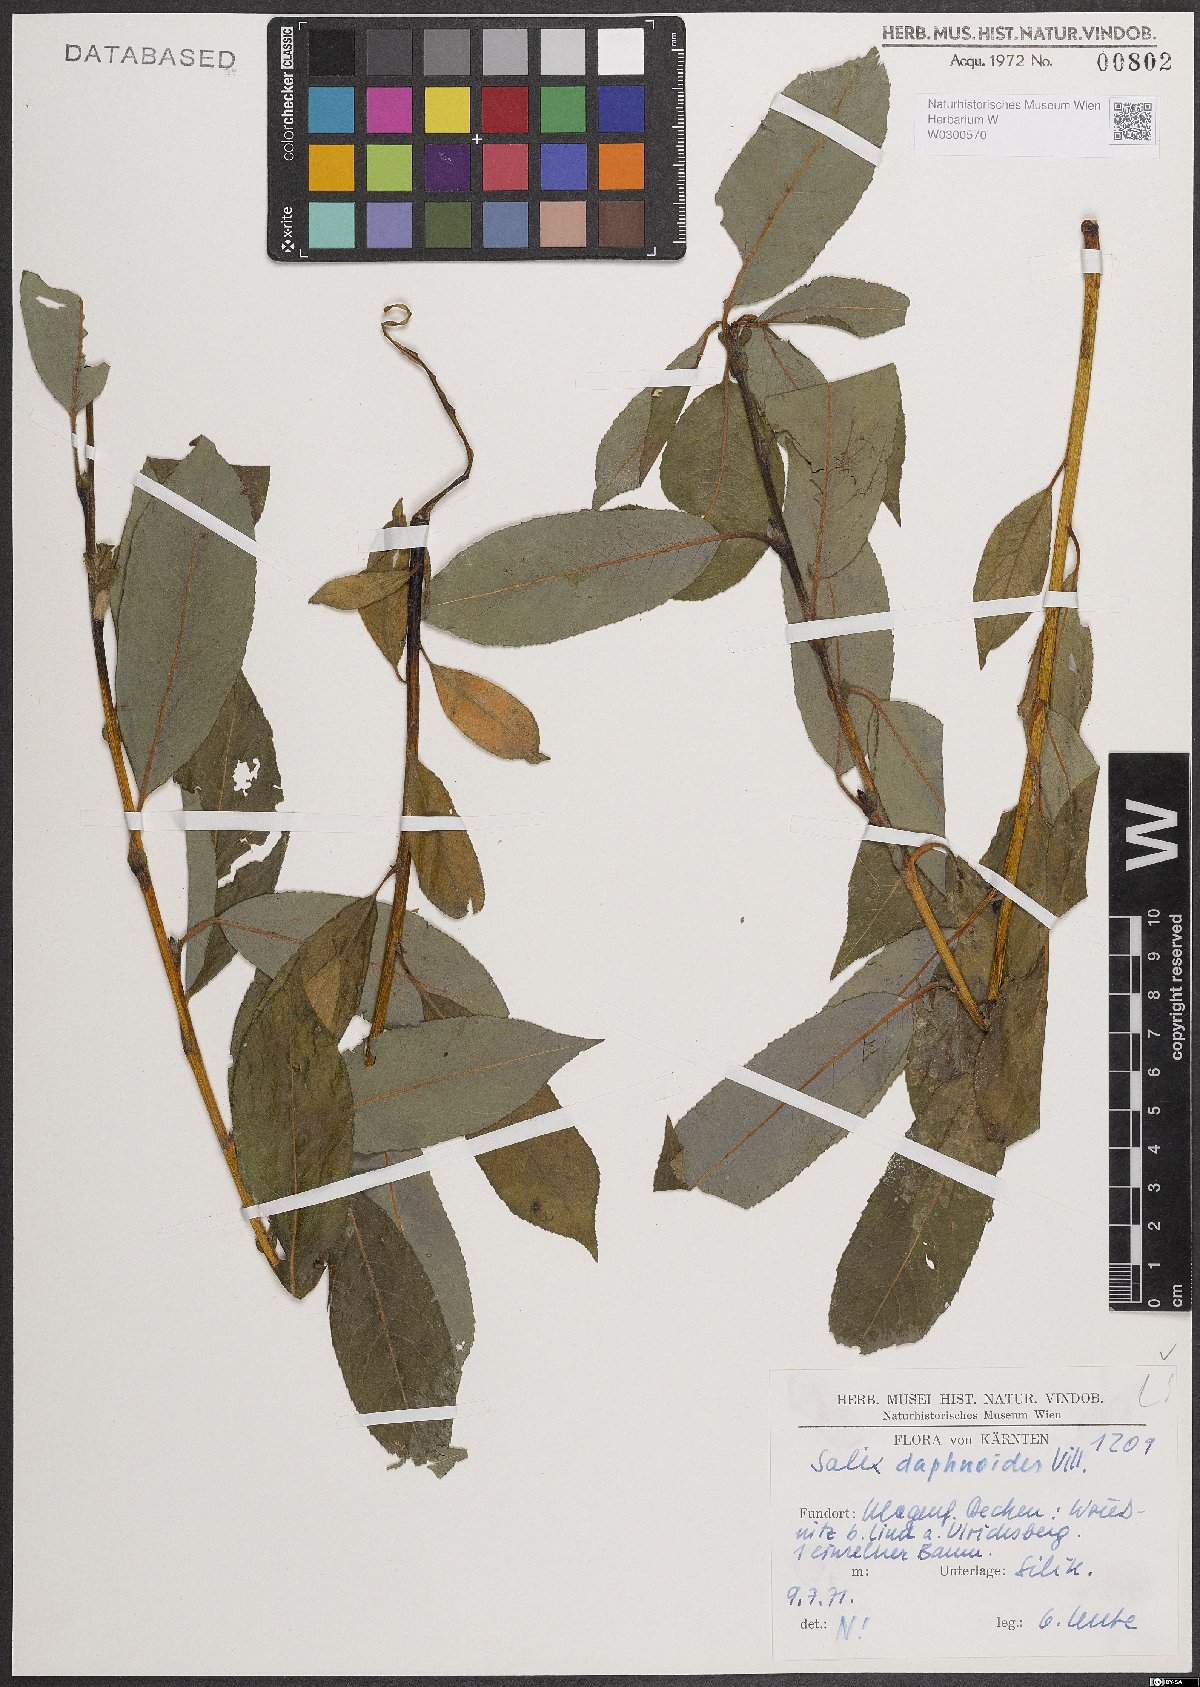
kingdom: Plantae
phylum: Tracheophyta
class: Magnoliopsida
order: Malpighiales
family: Salicaceae
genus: Salix
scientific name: Salix daphnoides
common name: European violet-willow
